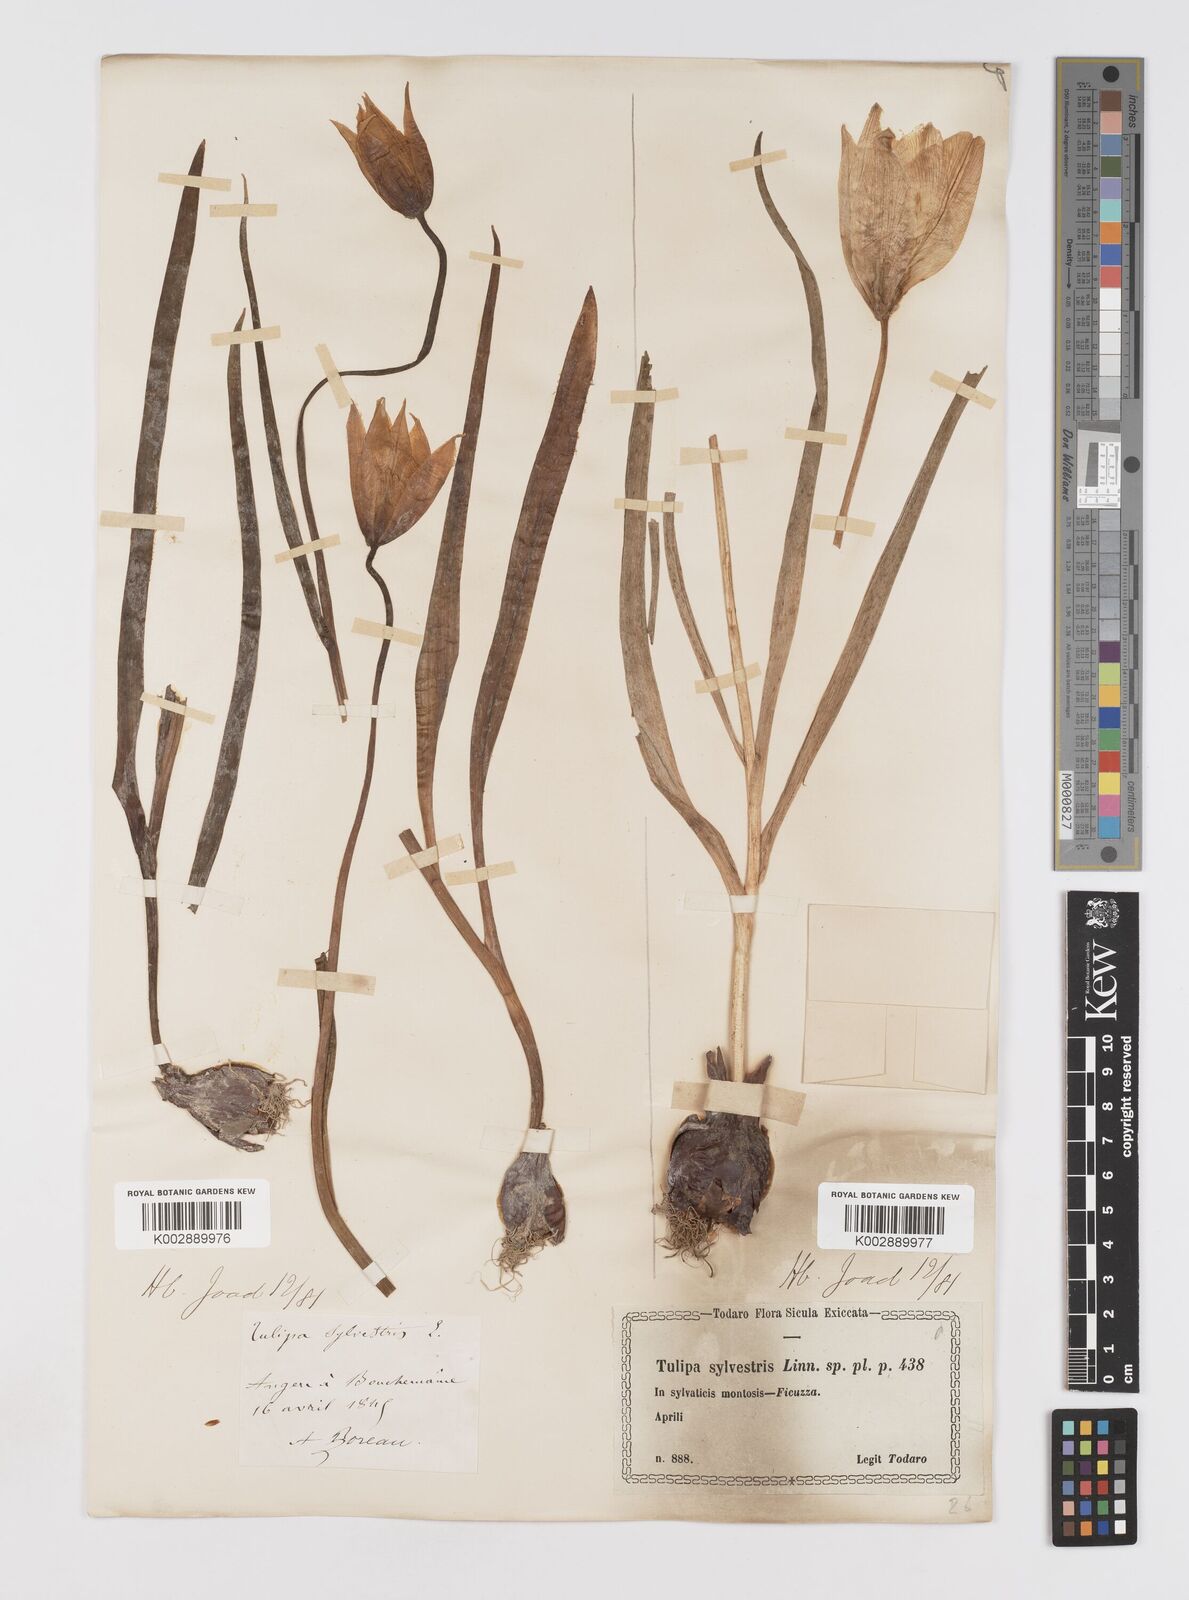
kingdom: Plantae
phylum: Tracheophyta
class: Liliopsida
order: Liliales
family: Liliaceae
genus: Tulipa
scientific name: Tulipa sylvestris
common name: Wild tulip
